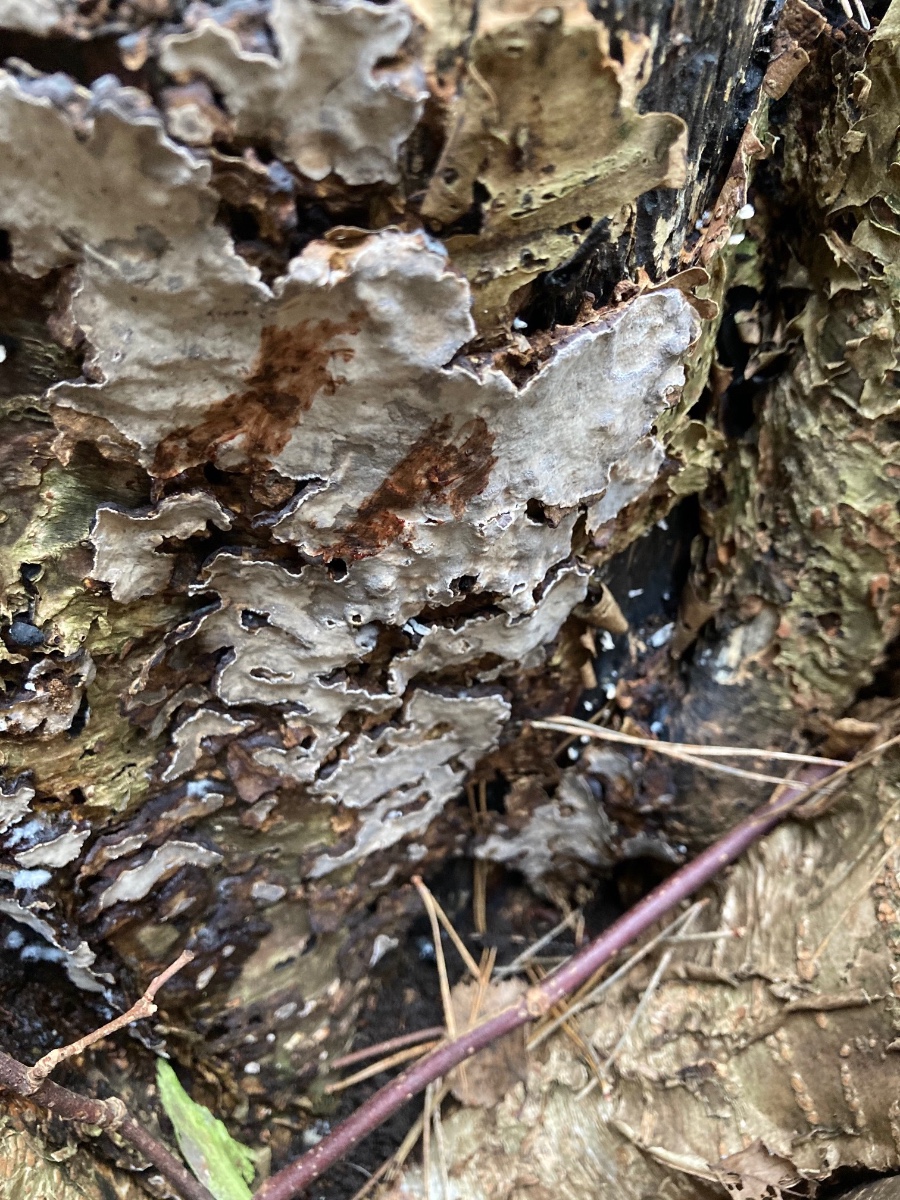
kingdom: Fungi
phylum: Basidiomycota
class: Agaricomycetes
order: Russulales
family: Stereaceae
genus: Stereum
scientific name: Stereum rugosum
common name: rynket lædersvamp
